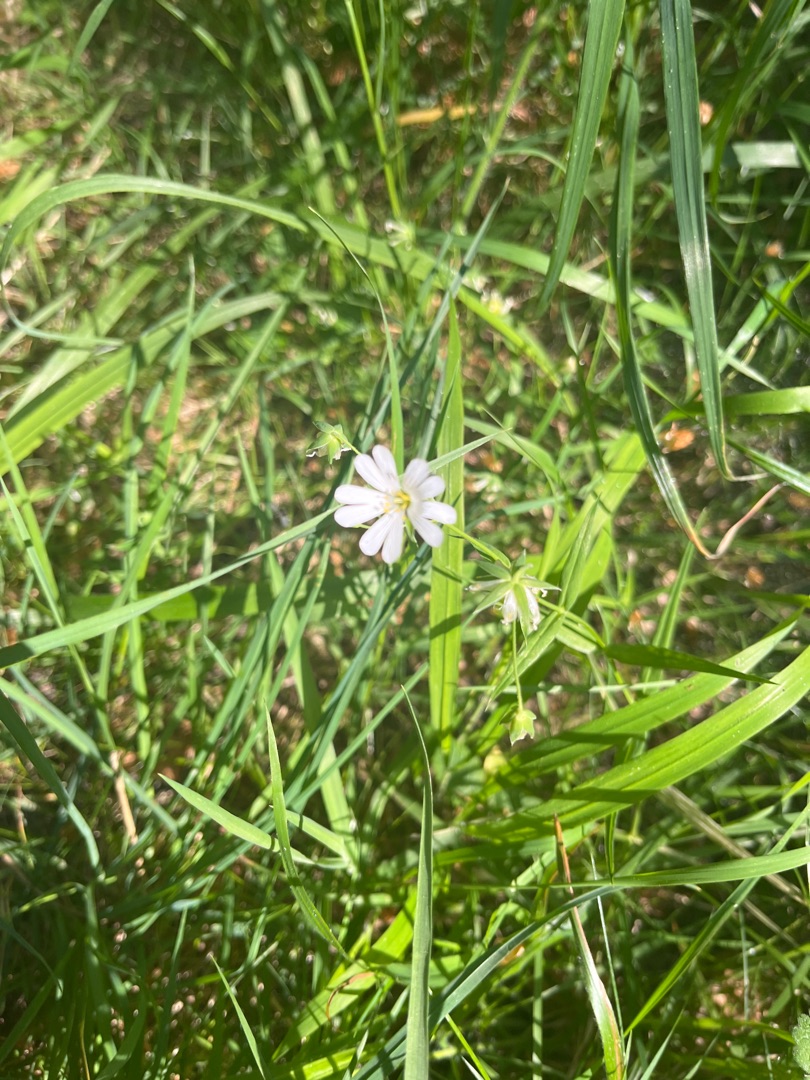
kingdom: Plantae
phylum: Tracheophyta
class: Magnoliopsida
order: Caryophyllales
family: Caryophyllaceae
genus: Rabelera
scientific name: Rabelera holostea
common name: Stor fladstjerne
